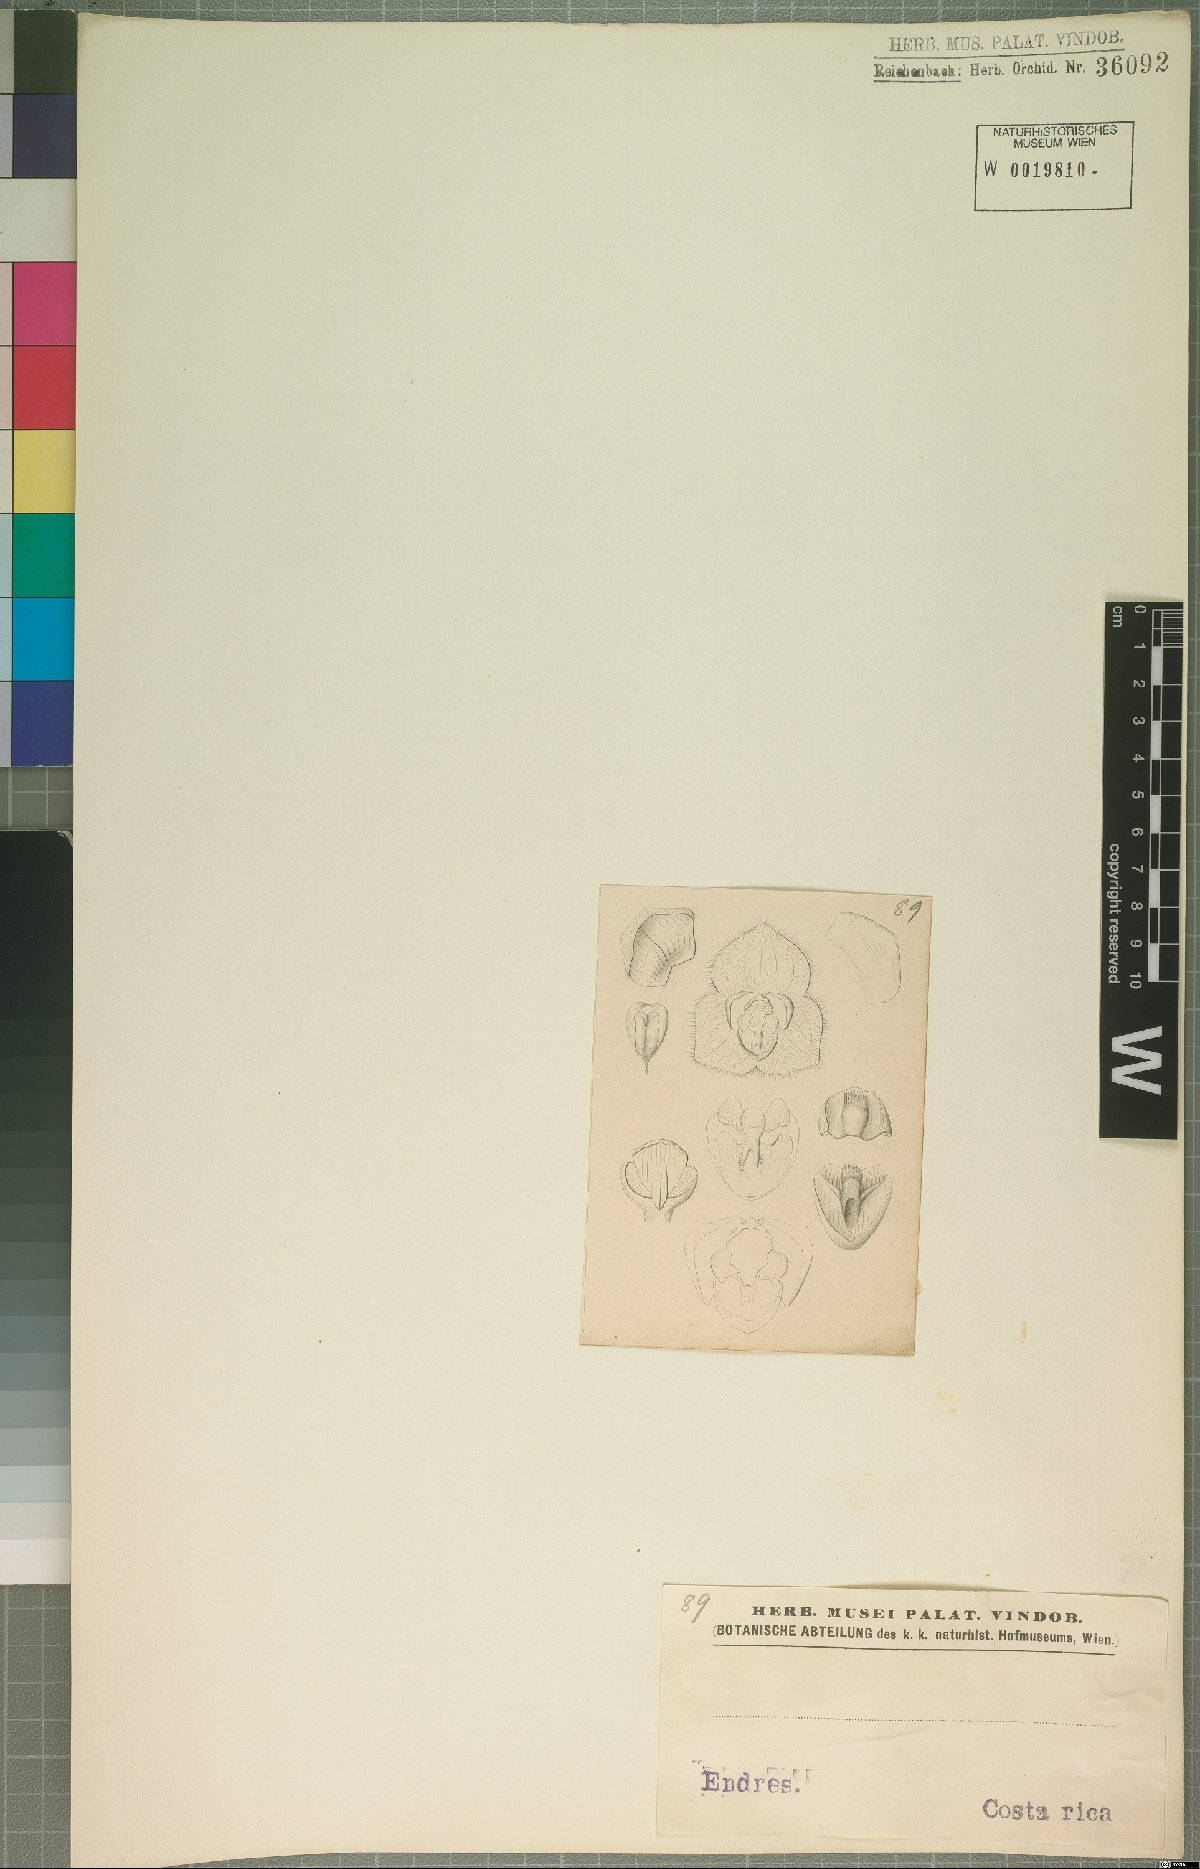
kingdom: Plantae
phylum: Tracheophyta
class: Liliopsida
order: Asparagales
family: Orchidaceae
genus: Stelis
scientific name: Stelis
